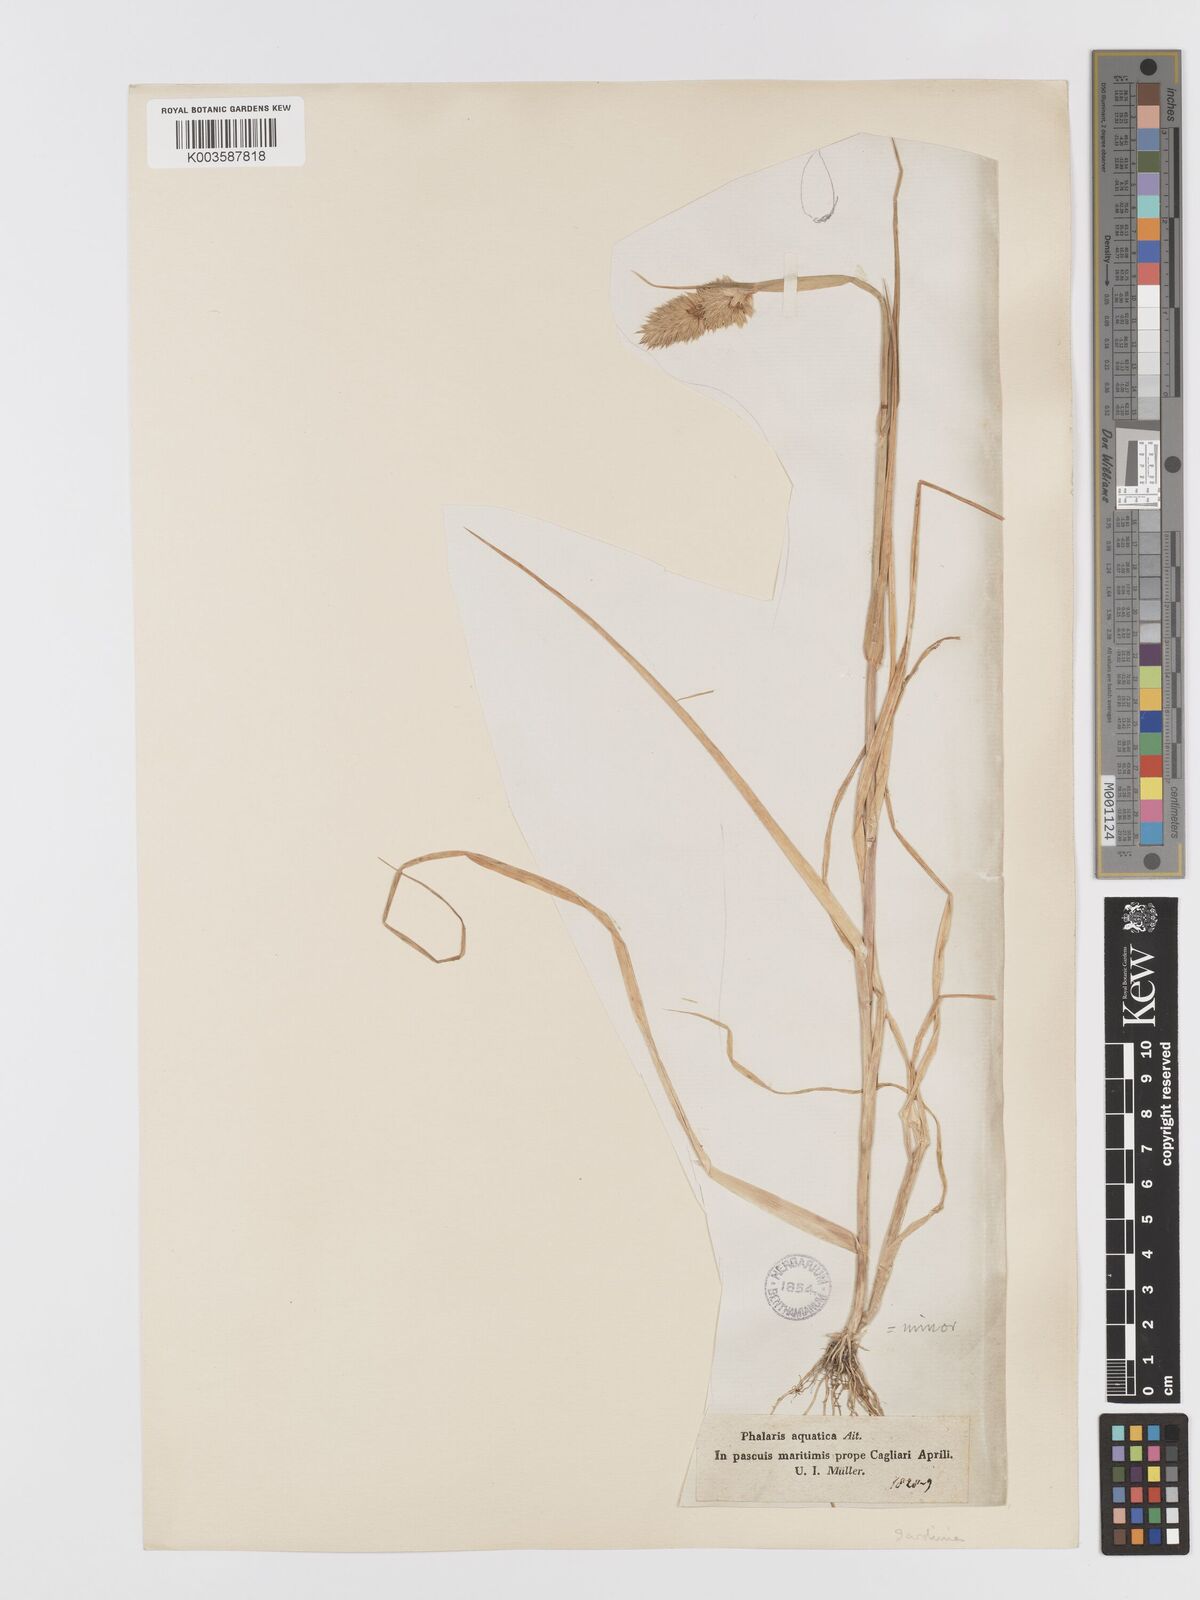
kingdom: Plantae
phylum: Tracheophyta
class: Liliopsida
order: Poales
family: Poaceae
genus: Phalaris
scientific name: Phalaris minor
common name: Littleseed canarygrass
